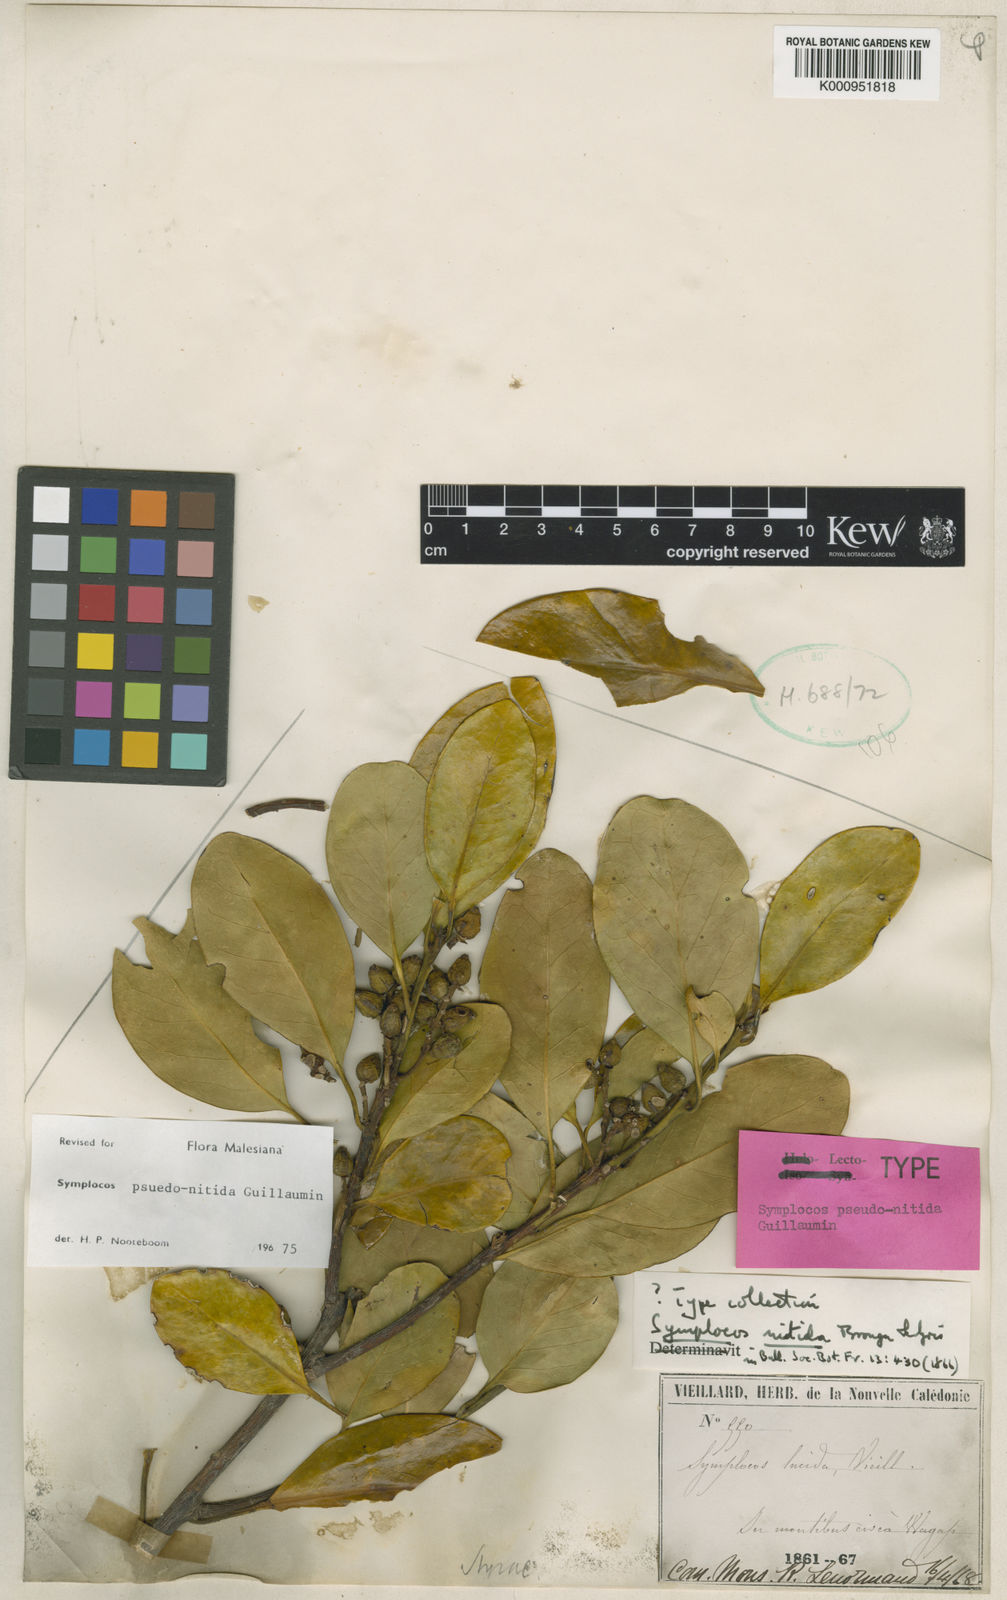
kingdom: Plantae
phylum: Tracheophyta
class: Magnoliopsida
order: Ericales
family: Symplocaceae
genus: Symplocos
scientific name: Symplocos flavescens
